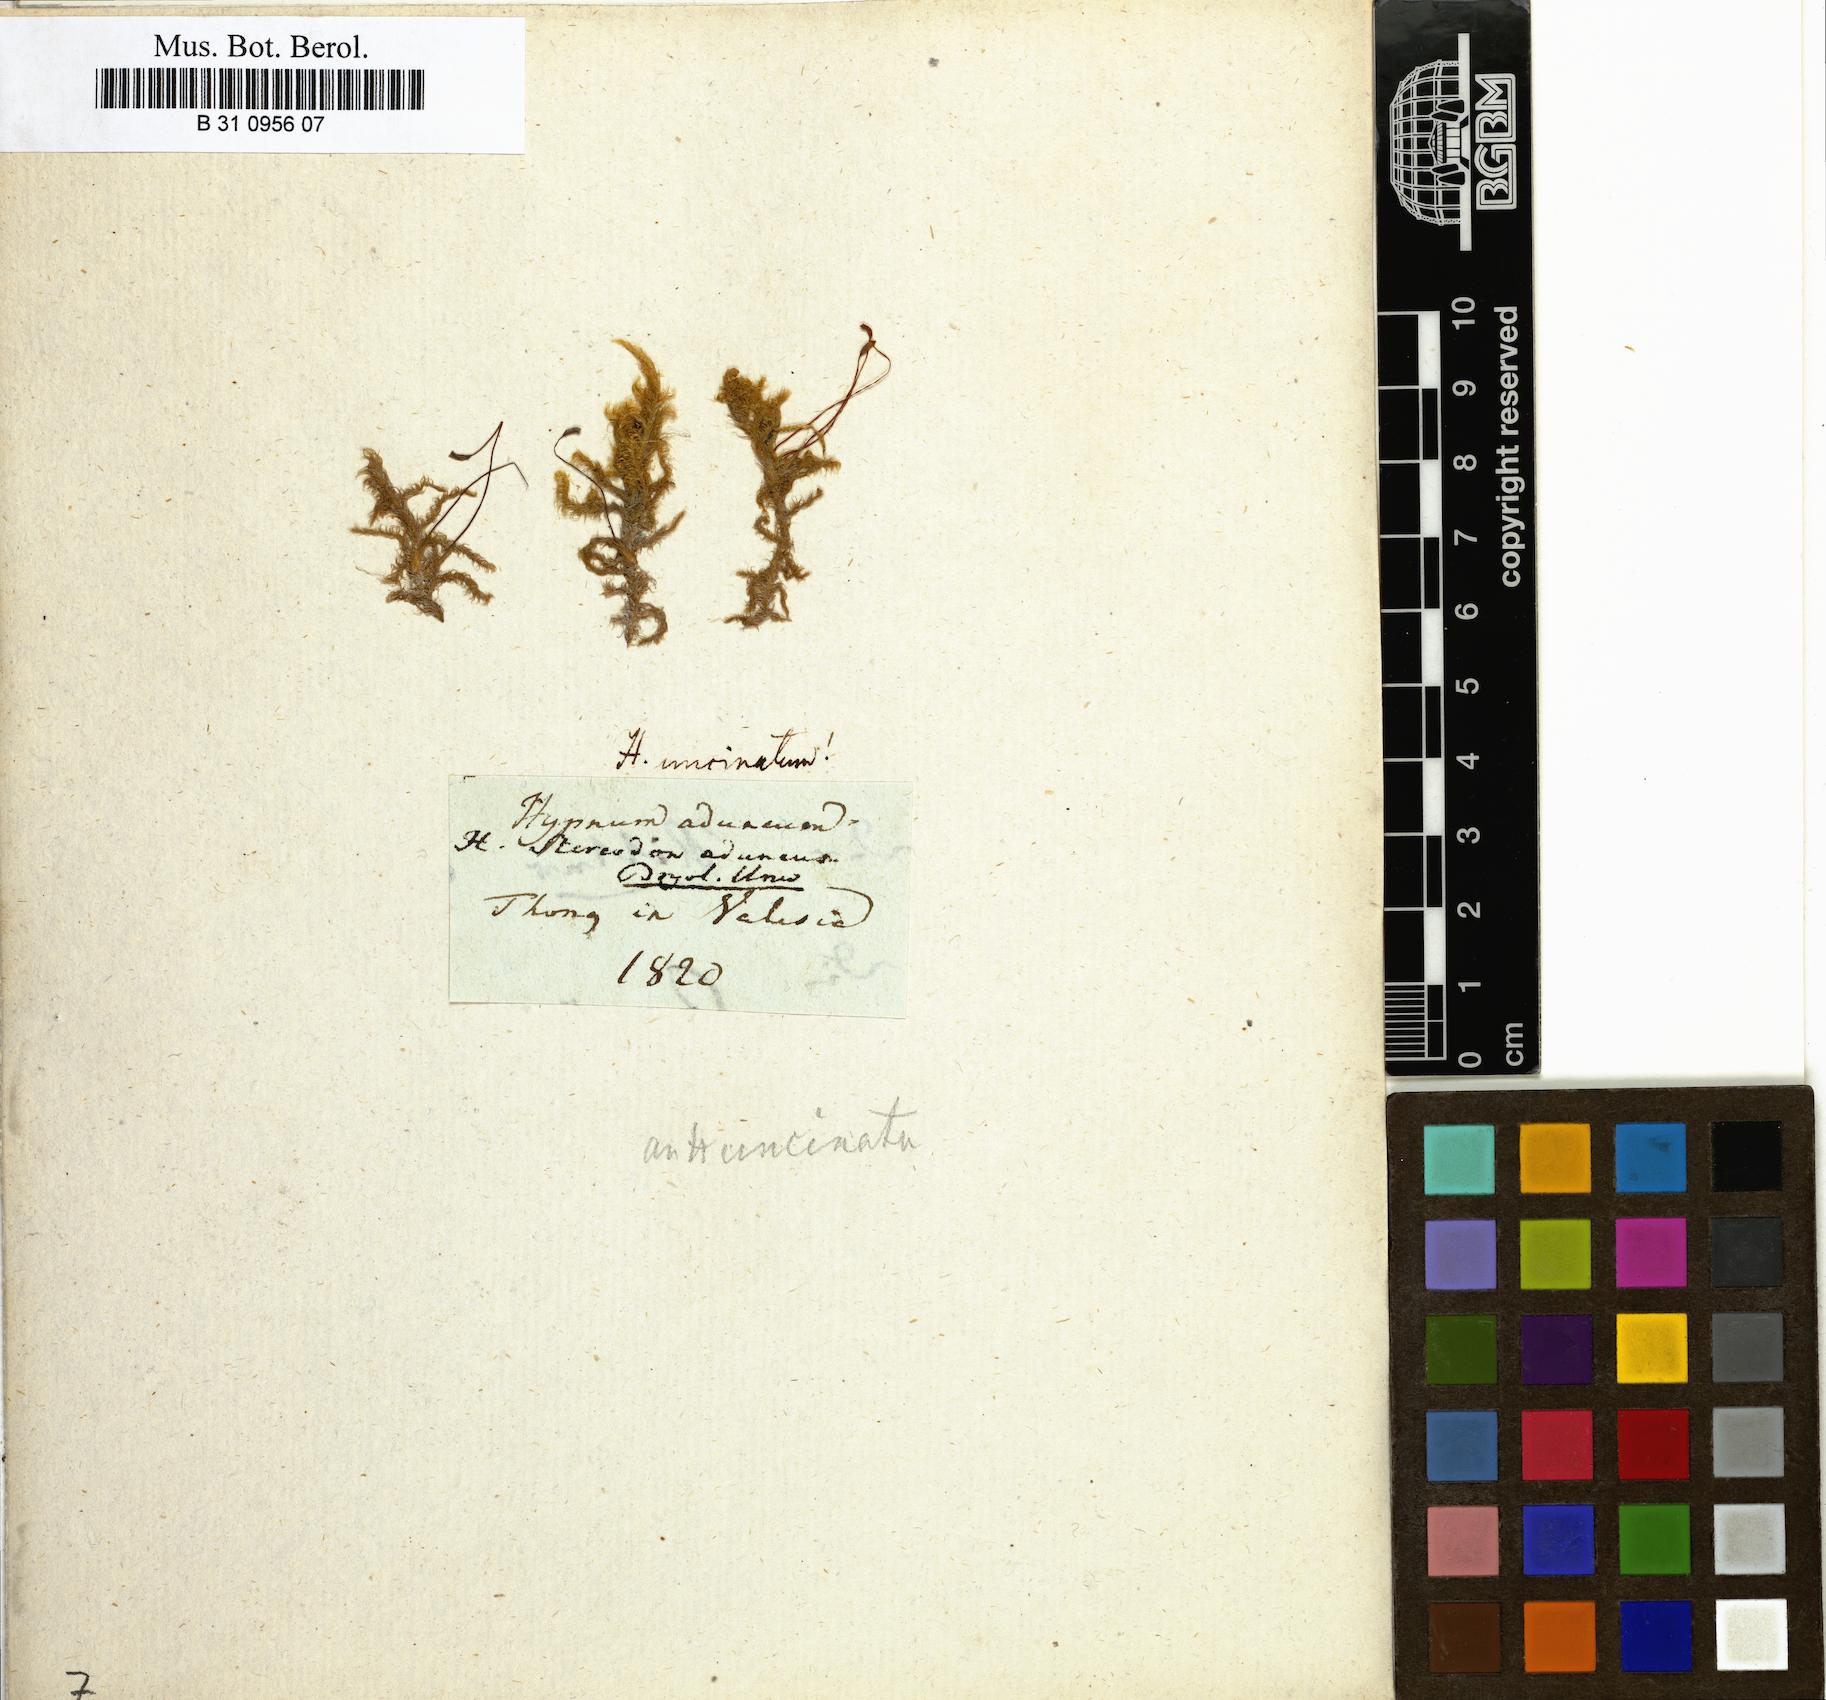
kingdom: Plantae
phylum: Bryophyta
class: Bryopsida
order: Hypnales
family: Amblystegiaceae
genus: Drepanocladus
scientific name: Drepanocladus aduncus
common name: Knieff's hook moss
